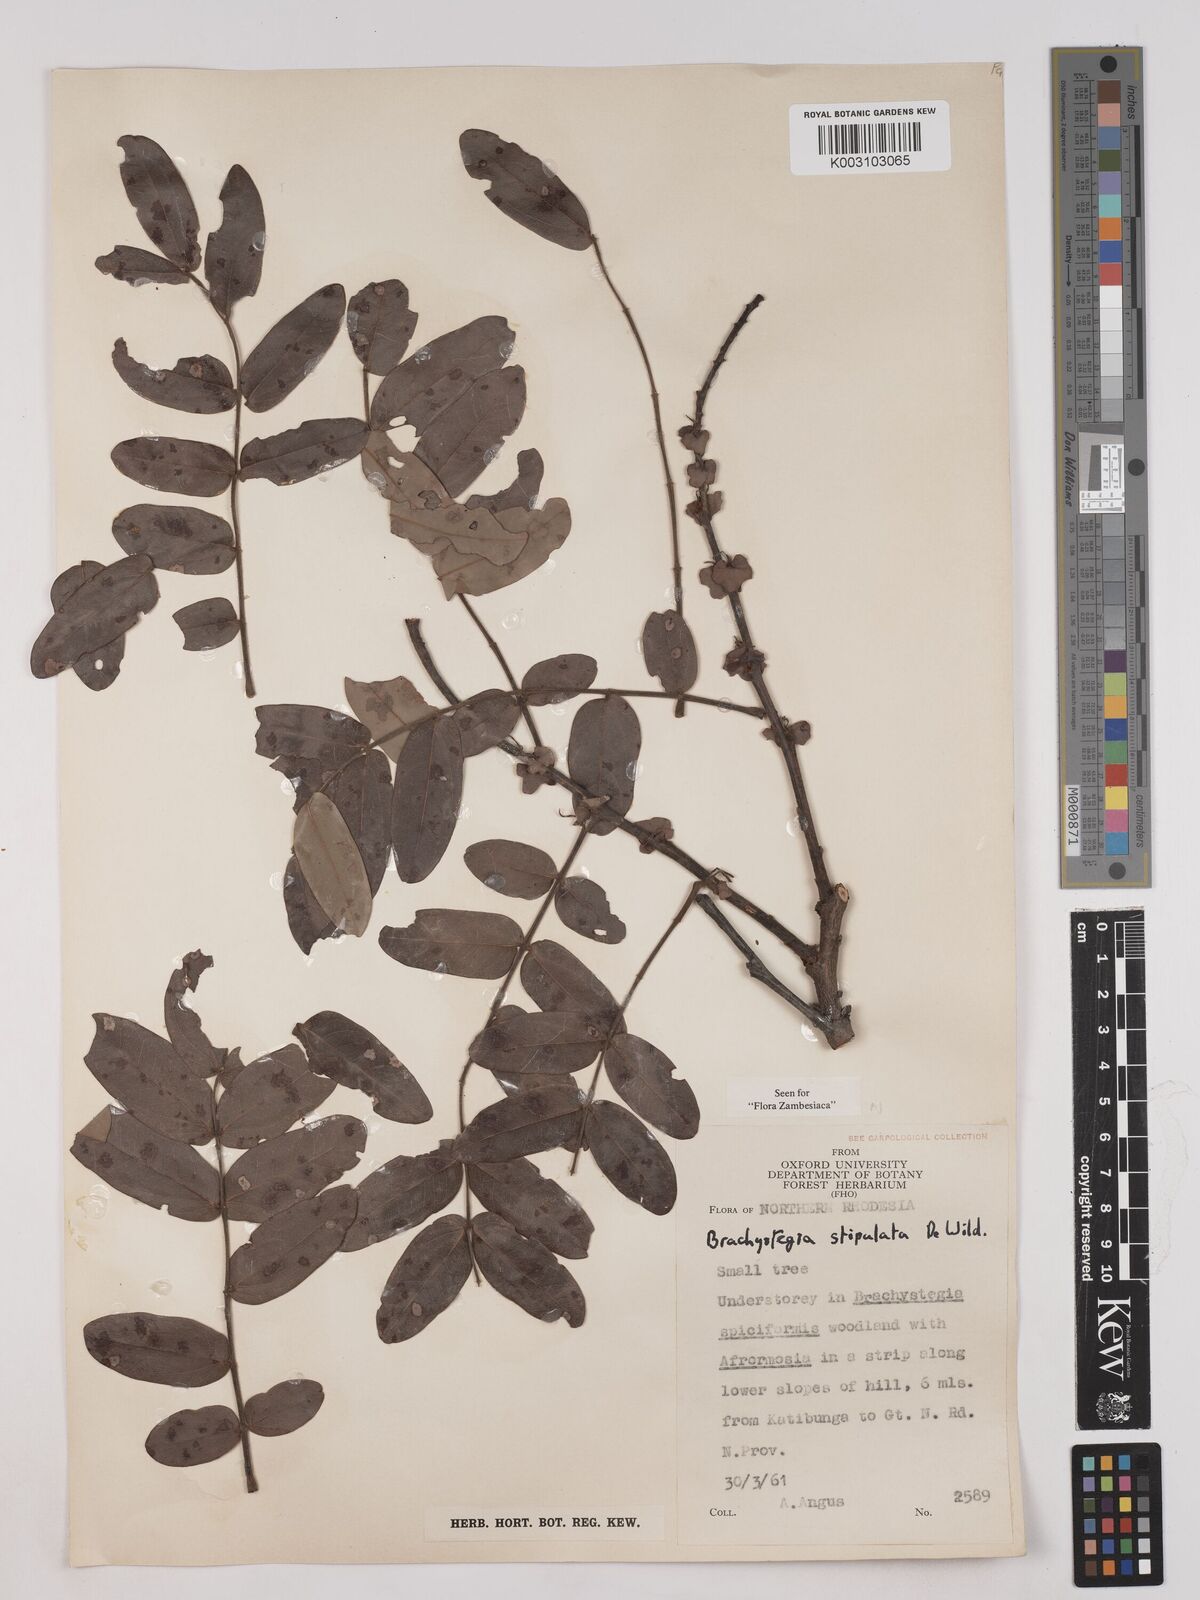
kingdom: Plantae
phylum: Tracheophyta
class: Magnoliopsida
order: Fabales
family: Fabaceae
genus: Brachystegia
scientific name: Brachystegia stipulata
